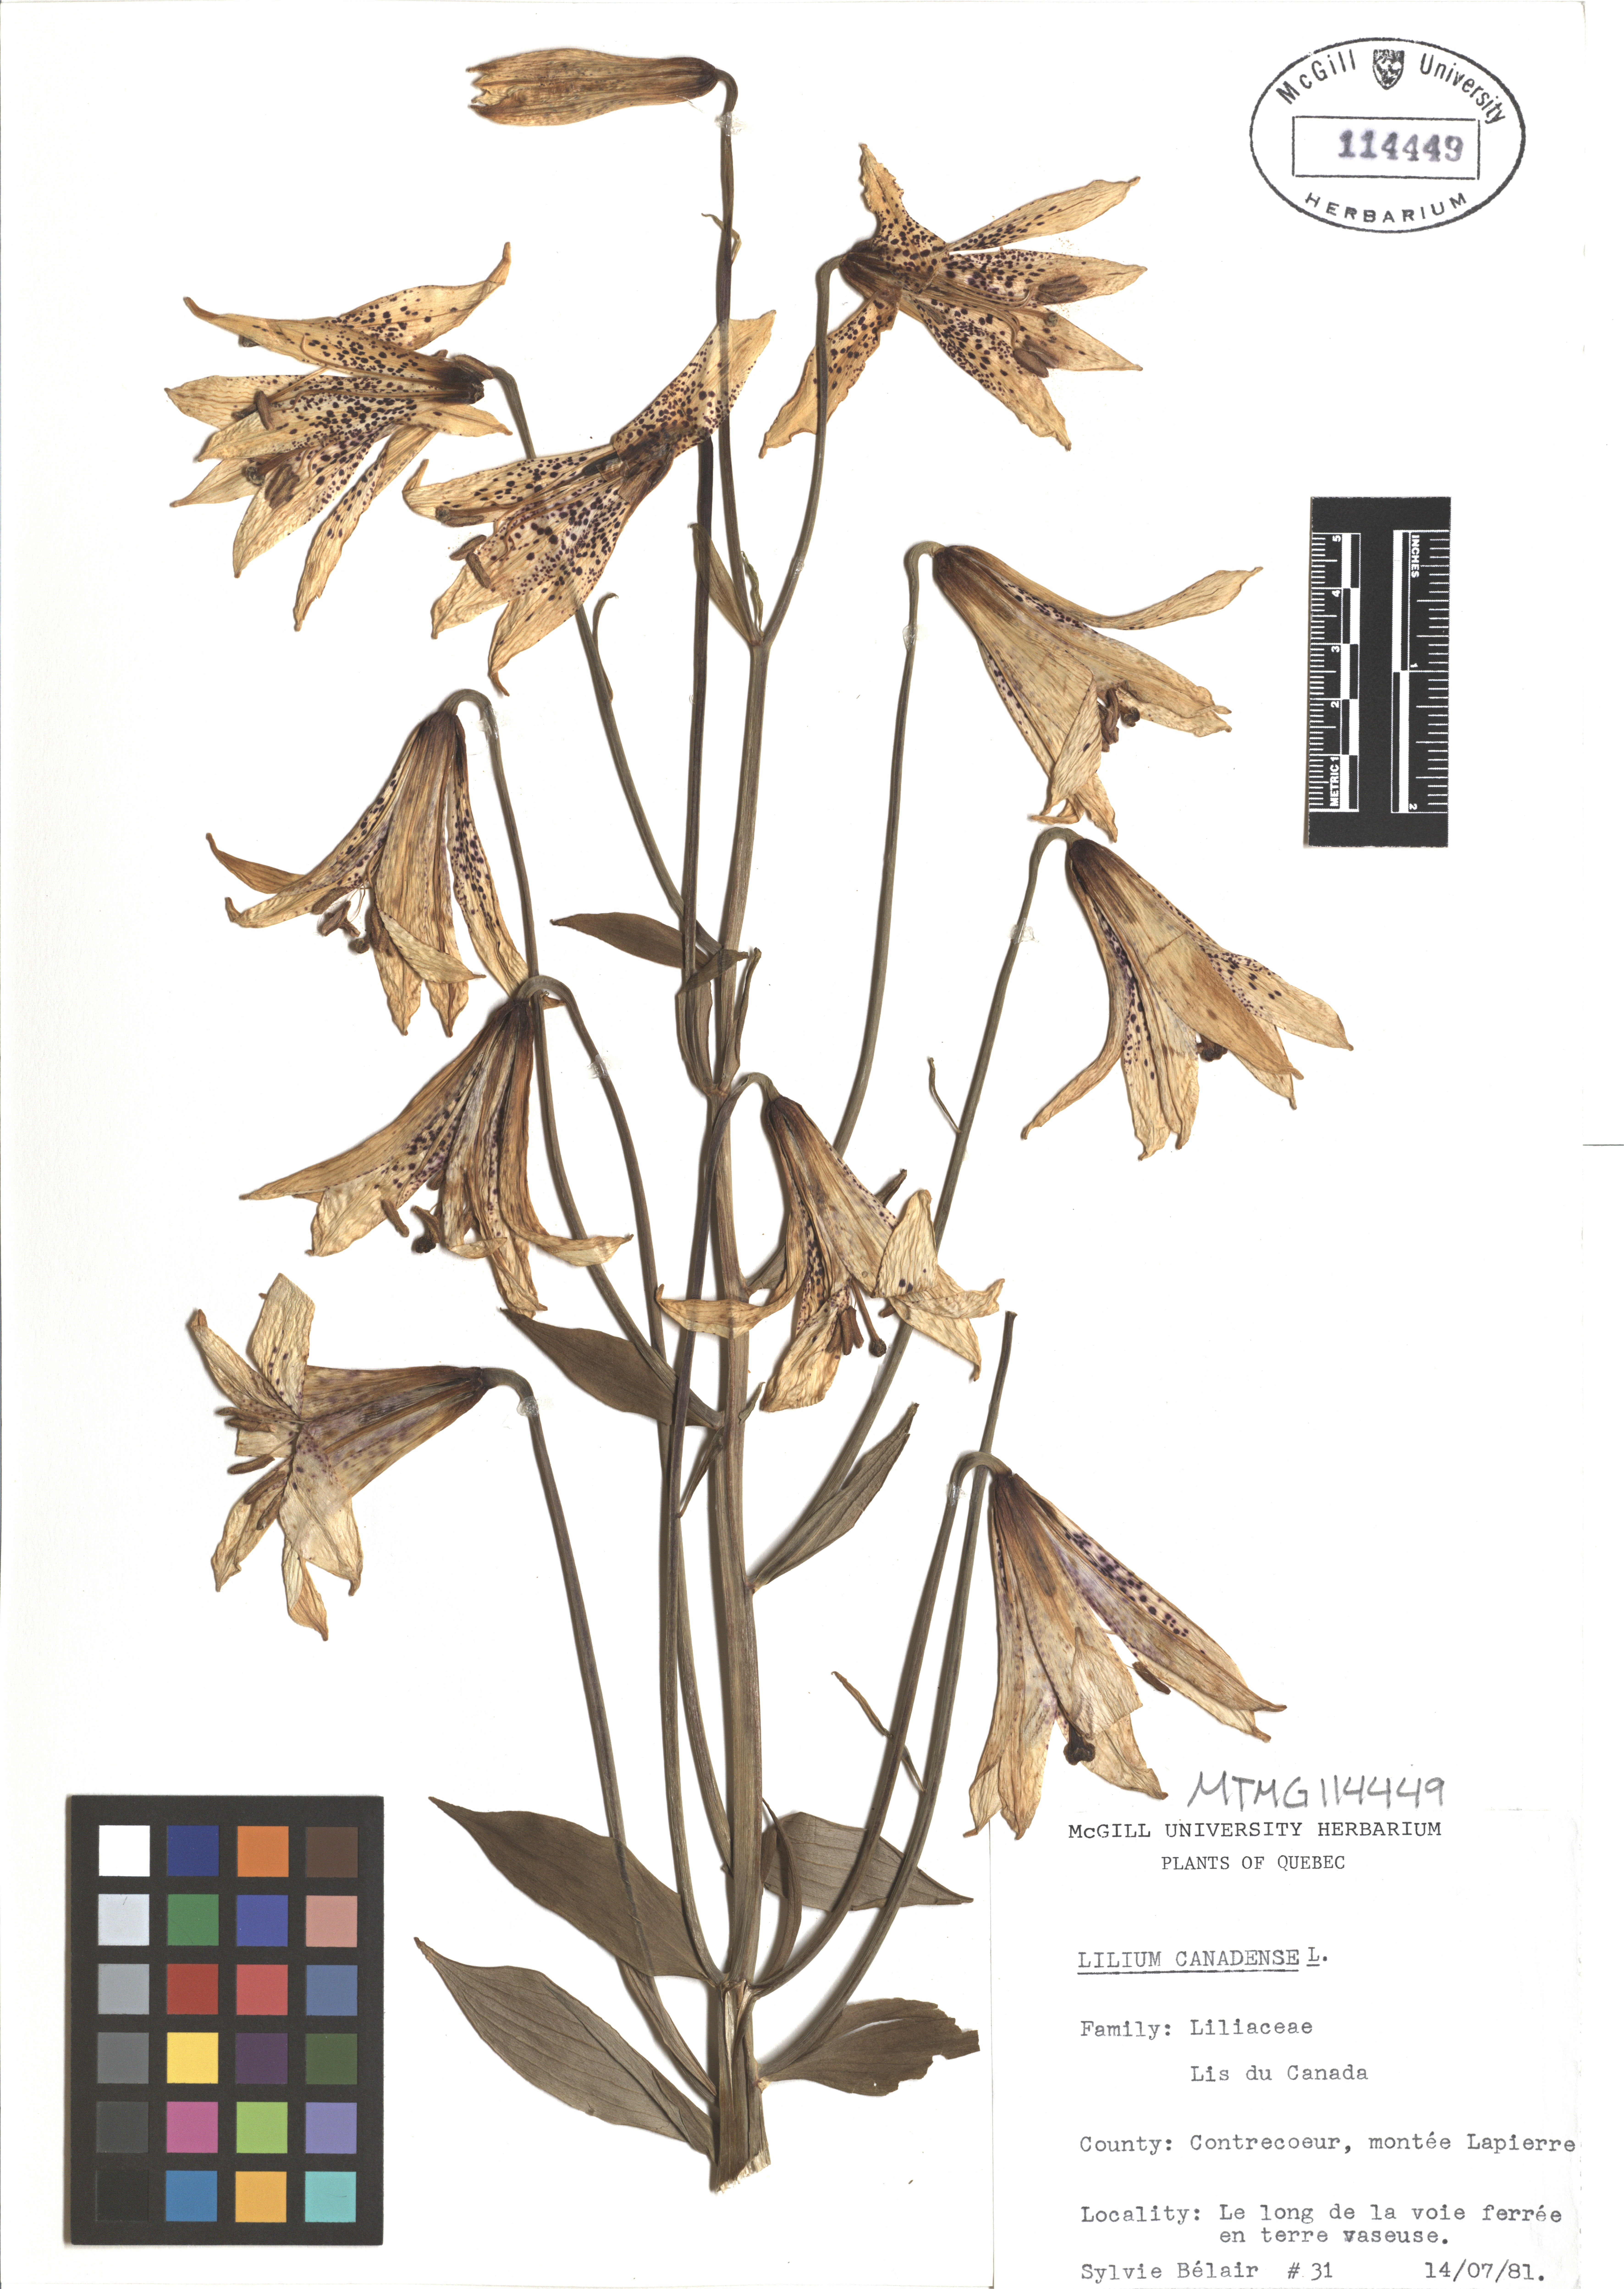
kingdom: Plantae
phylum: Tracheophyta
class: Liliopsida
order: Liliales
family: Liliaceae
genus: Lilium
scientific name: Lilium canadense
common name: Canada lily
